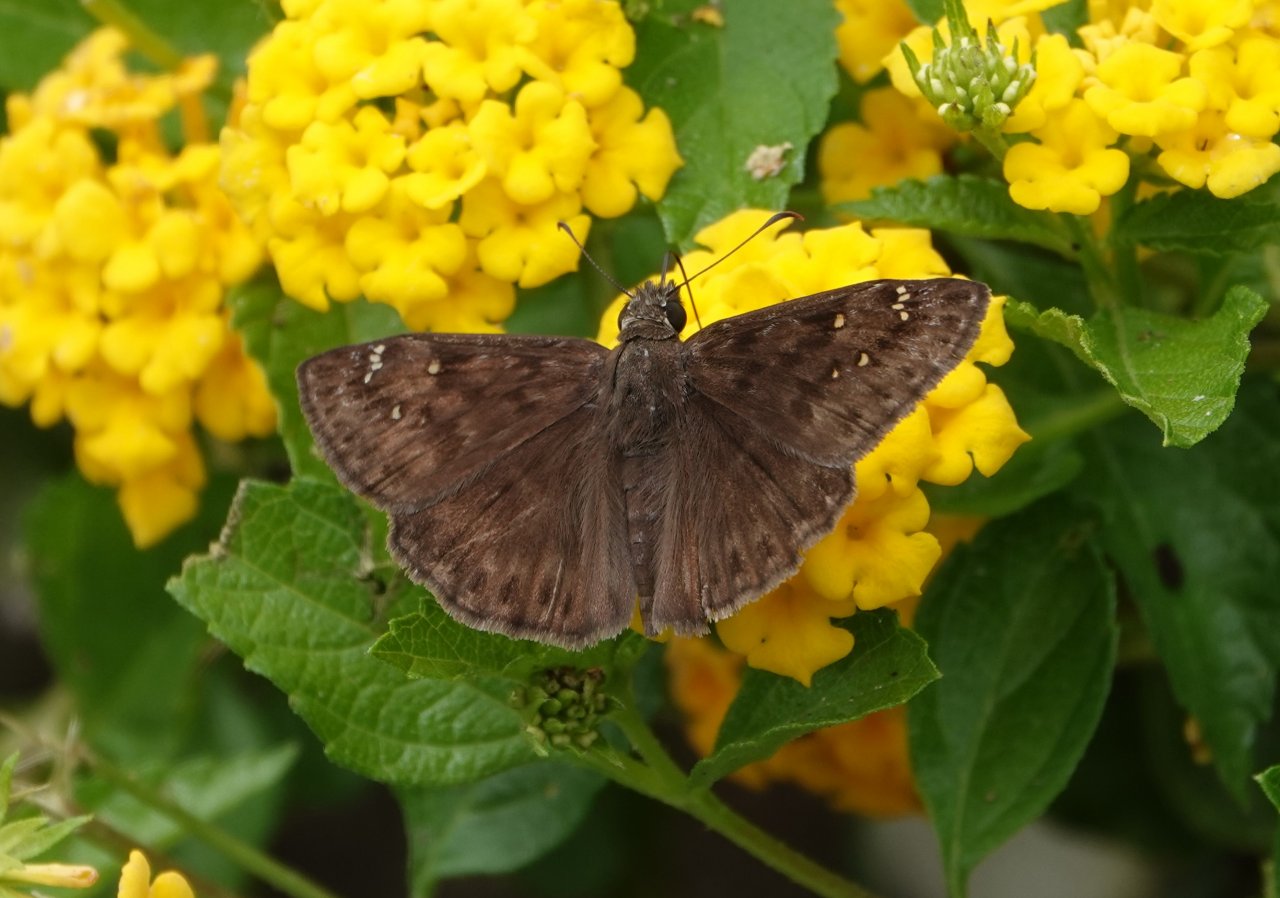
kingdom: Animalia
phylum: Arthropoda
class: Insecta
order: Lepidoptera
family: Hesperiidae
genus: Gesta
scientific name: Gesta
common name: Horace's Duskywing
